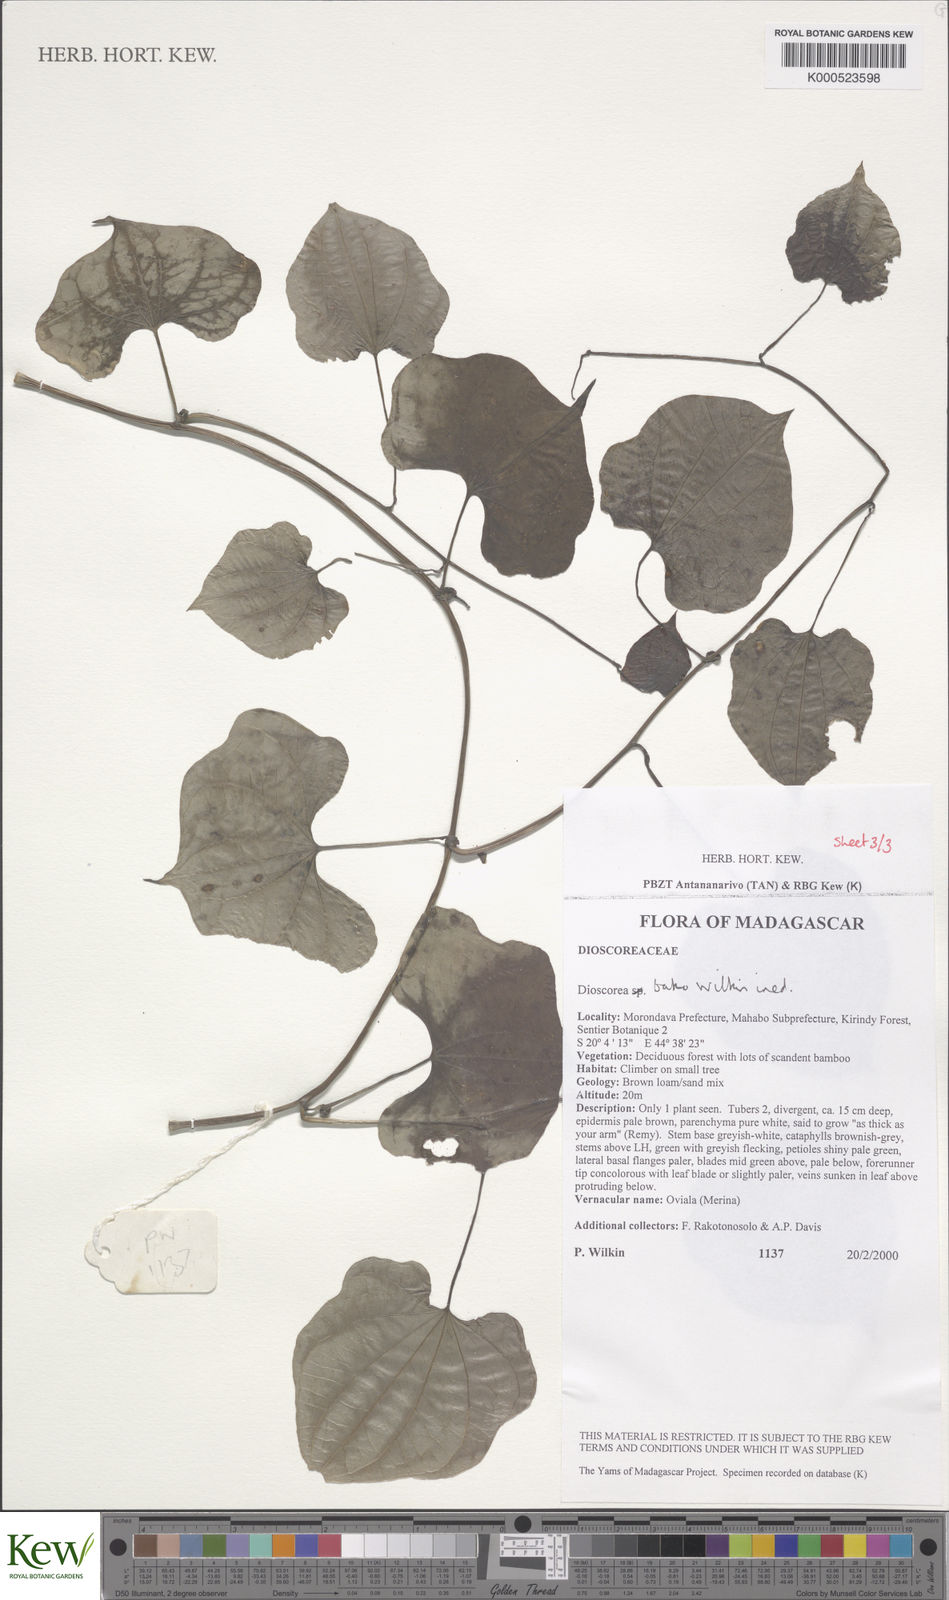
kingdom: Plantae
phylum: Tracheophyta
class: Liliopsida
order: Dioscoreales
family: Dioscoreaceae
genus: Dioscorea
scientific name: Dioscorea bako
